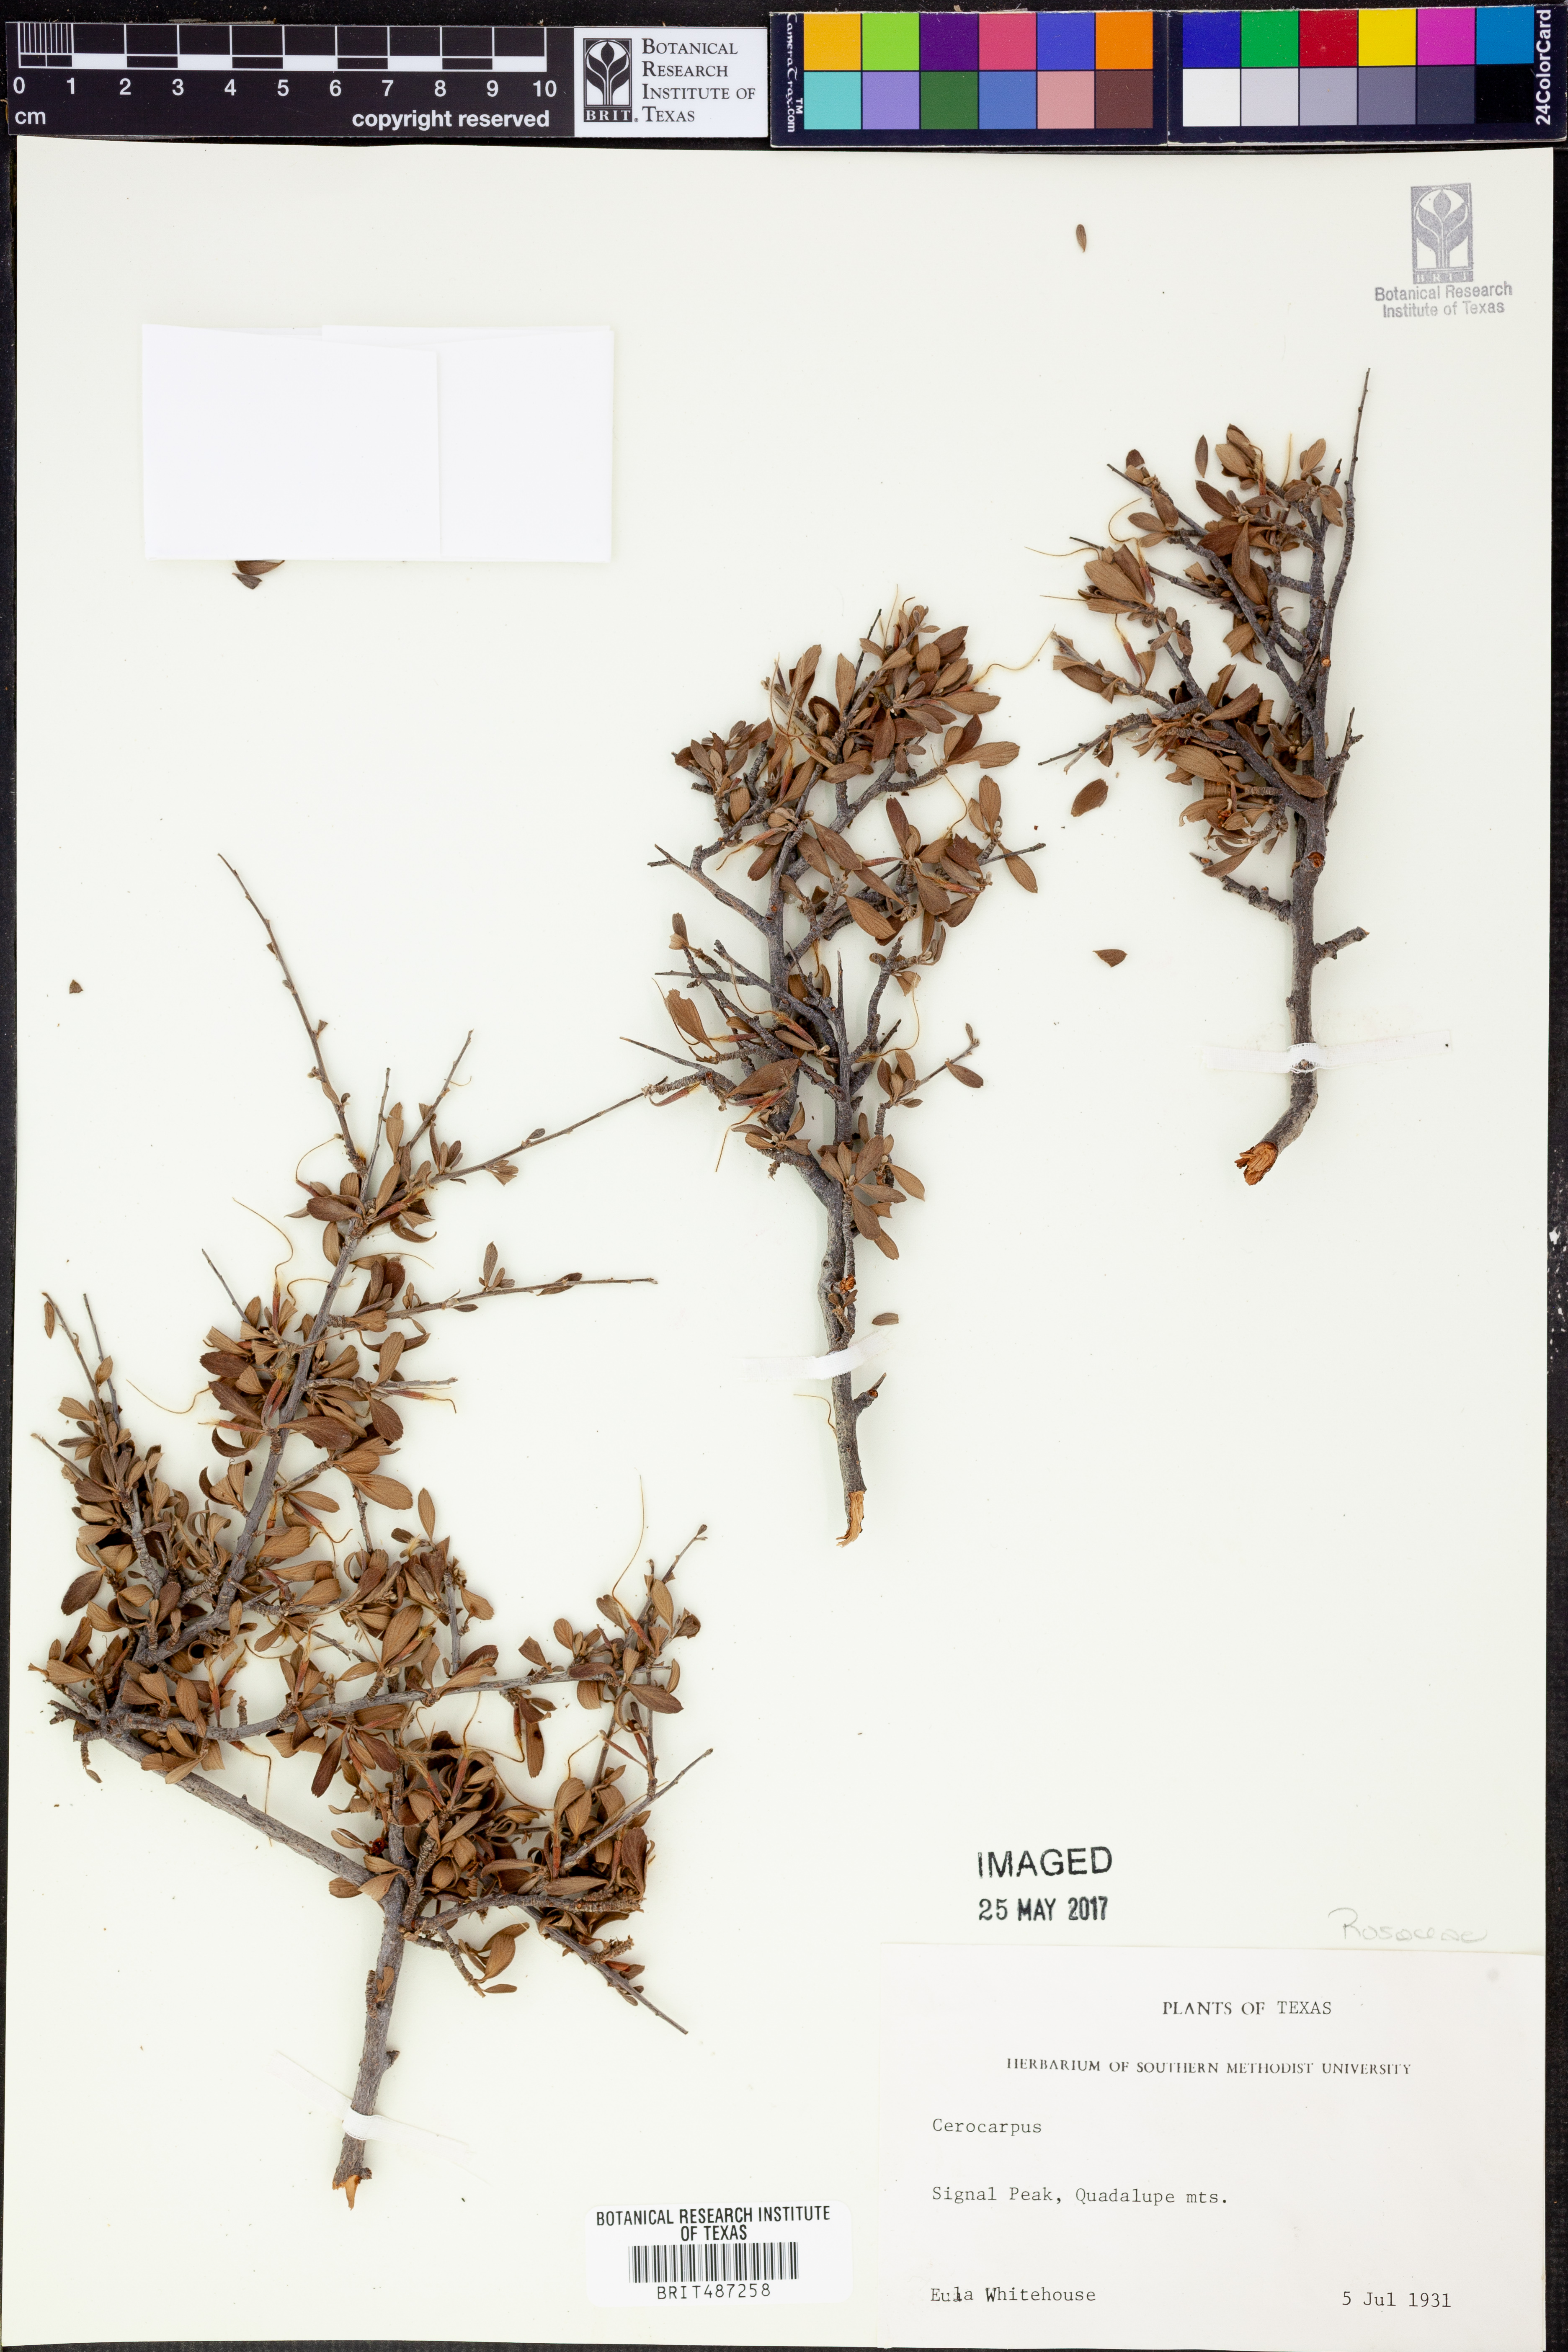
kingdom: Plantae
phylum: Tracheophyta
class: Magnoliopsida
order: Rosales
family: Rosaceae
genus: Cercocarpus
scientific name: Cercocarpus
